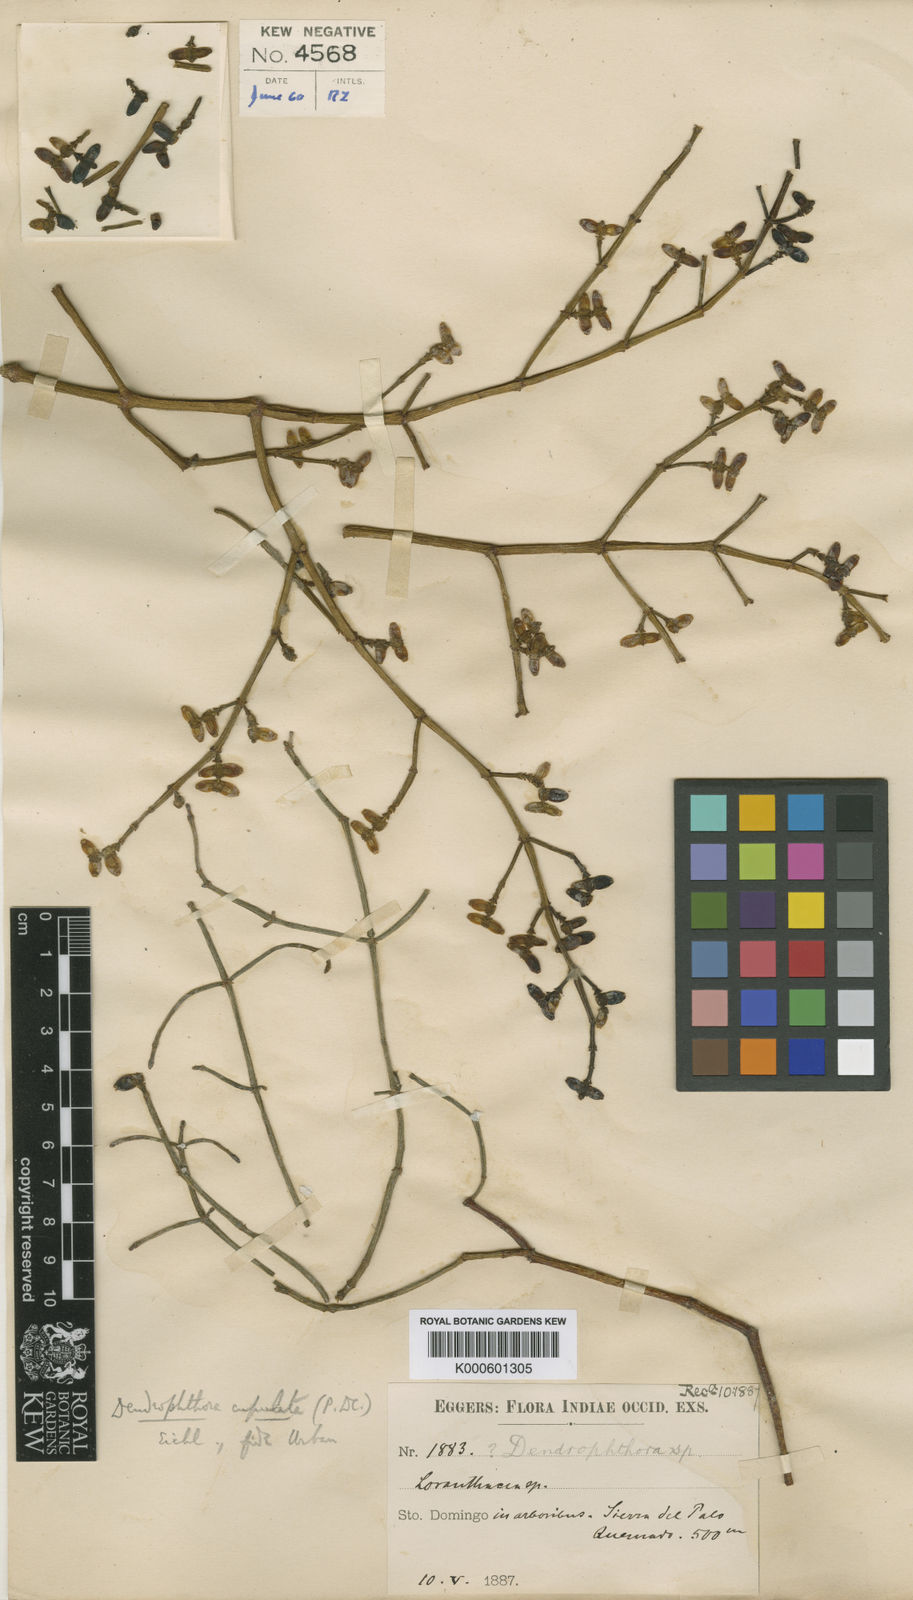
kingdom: Plantae
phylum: Tracheophyta
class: Magnoliopsida
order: Santalales
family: Viscaceae
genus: Dendrophthora
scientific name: Dendrophthora cupulata
